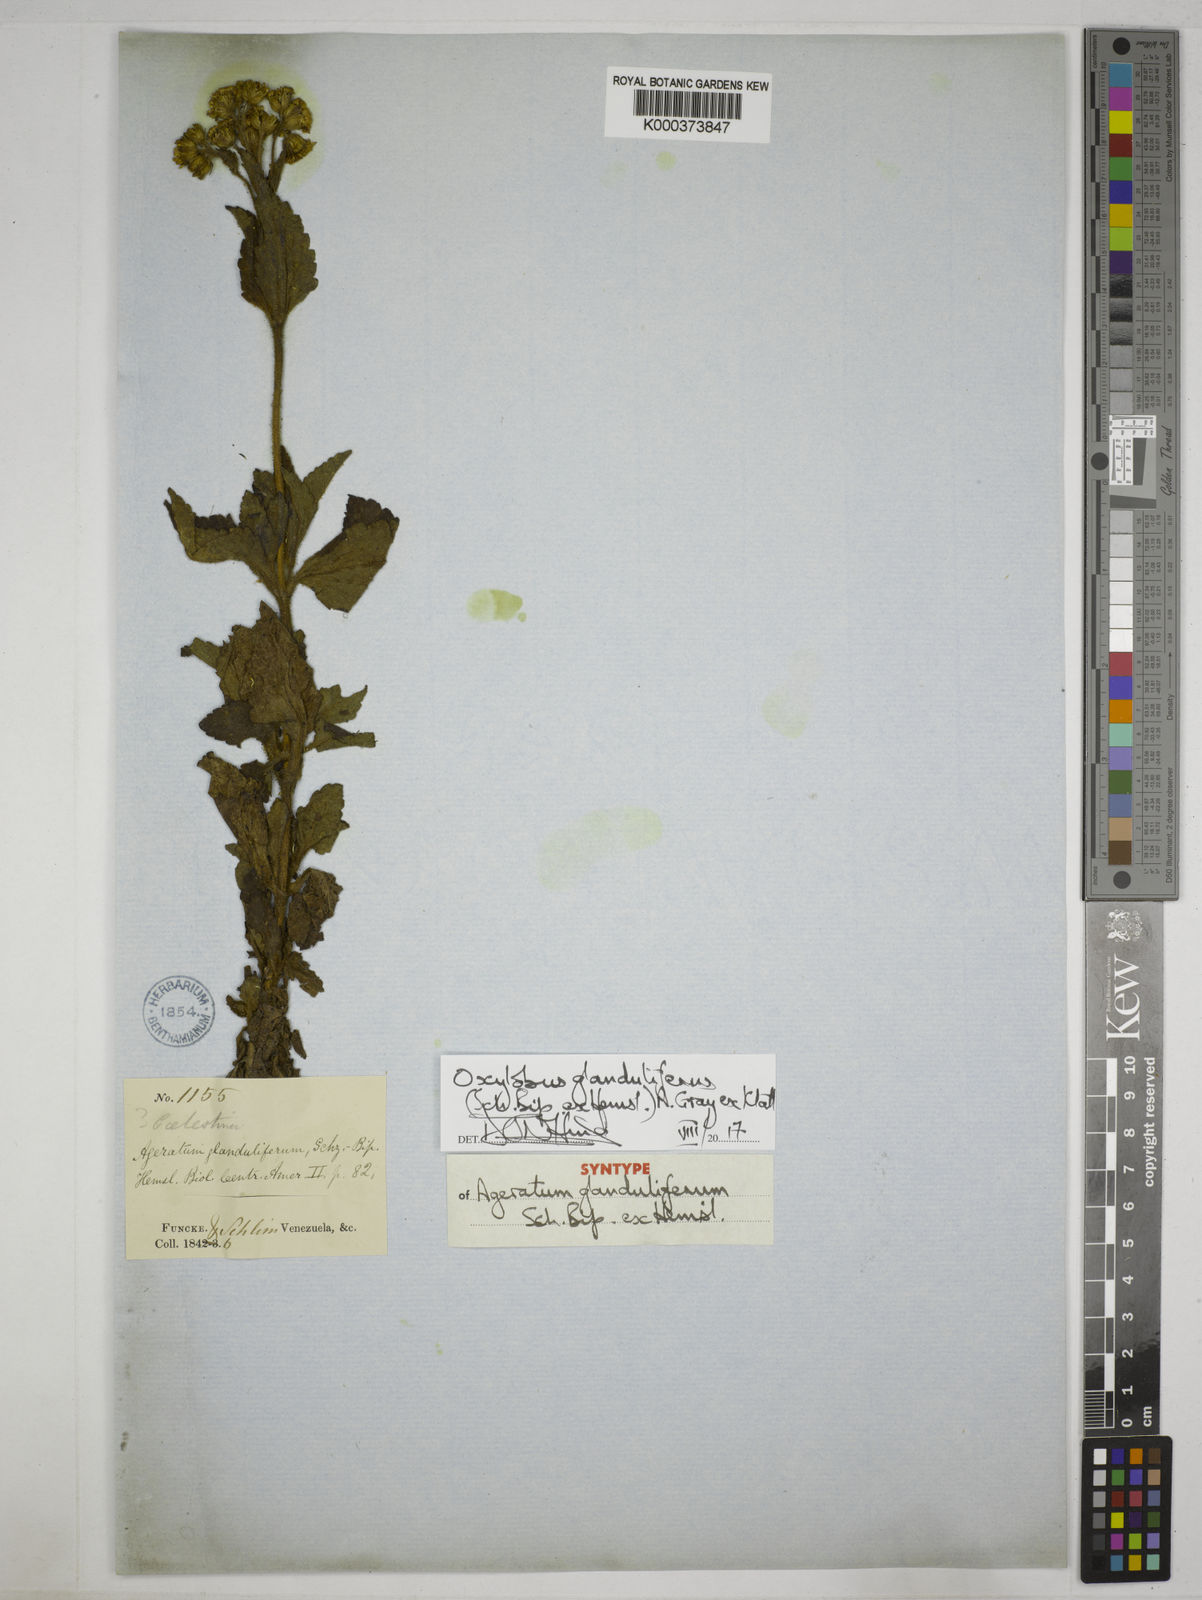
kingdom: Plantae
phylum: Tracheophyta
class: Magnoliopsida
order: Asterales
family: Asteraceae
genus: Oxylobus
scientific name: Oxylobus glanduliferus
